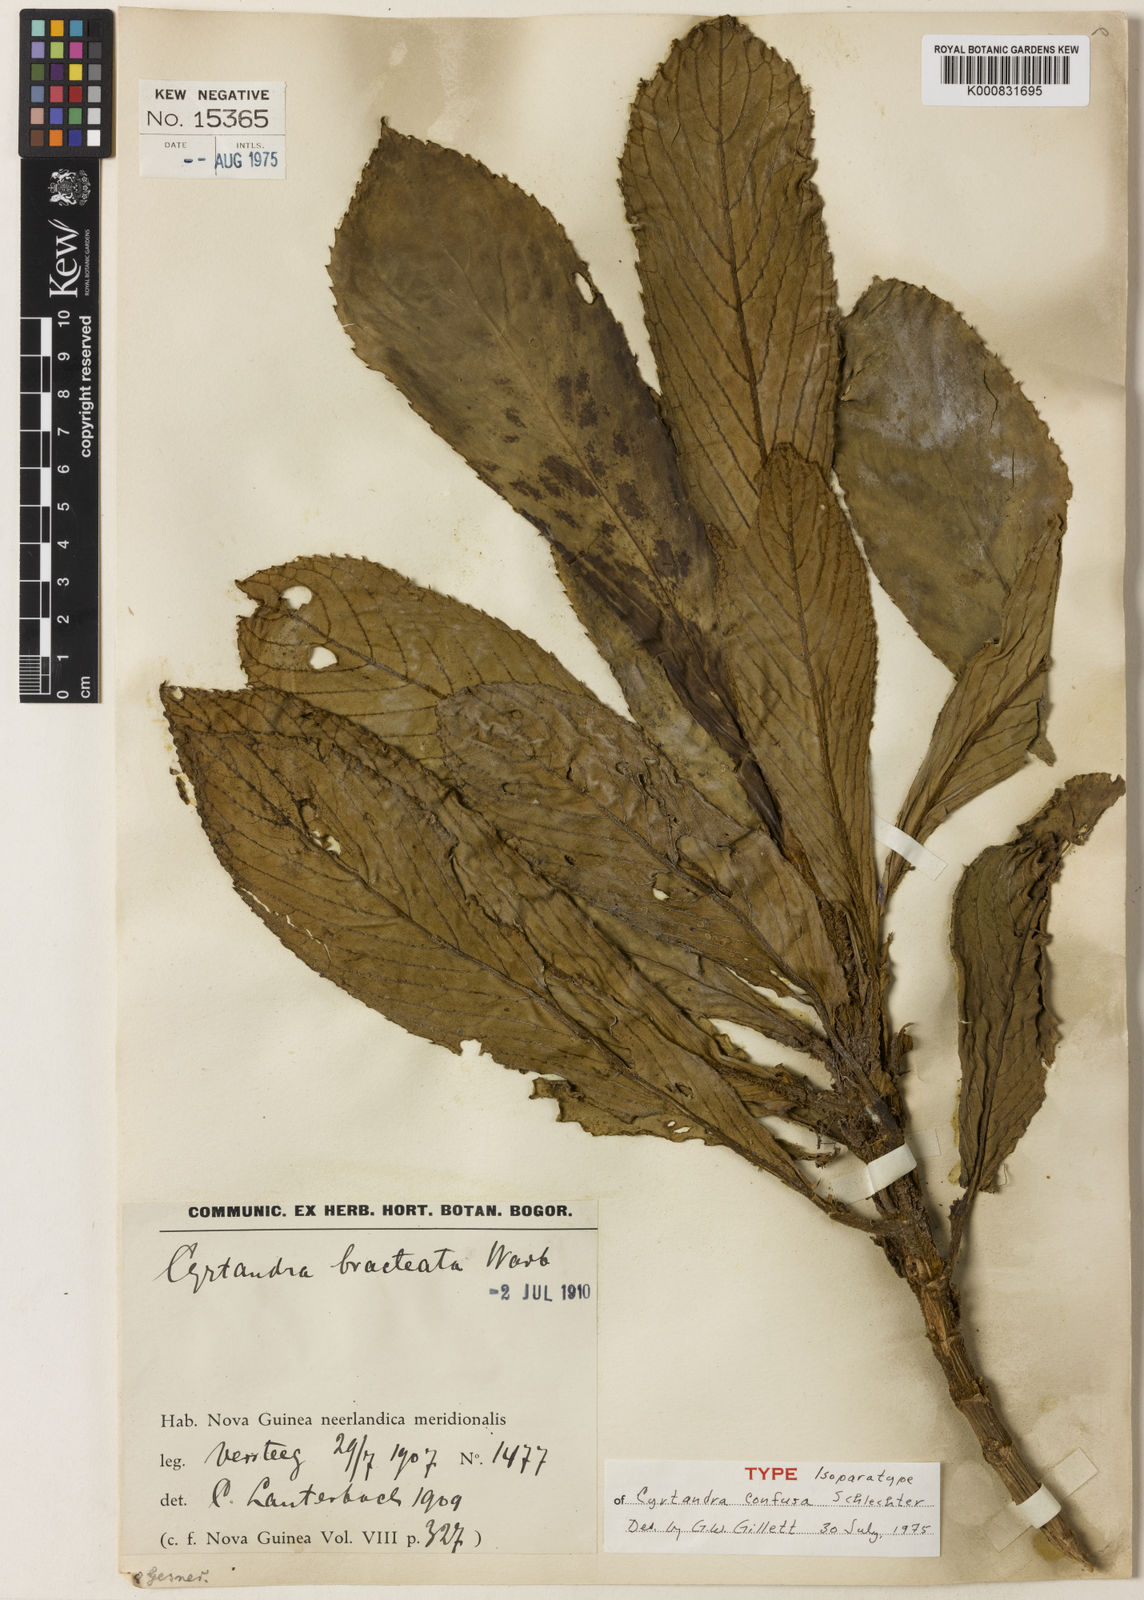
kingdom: Plantae
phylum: Tracheophyta
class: Magnoliopsida
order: Lamiales
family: Gesneriaceae
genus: Cyrtandra
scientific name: Cyrtandra confusa
